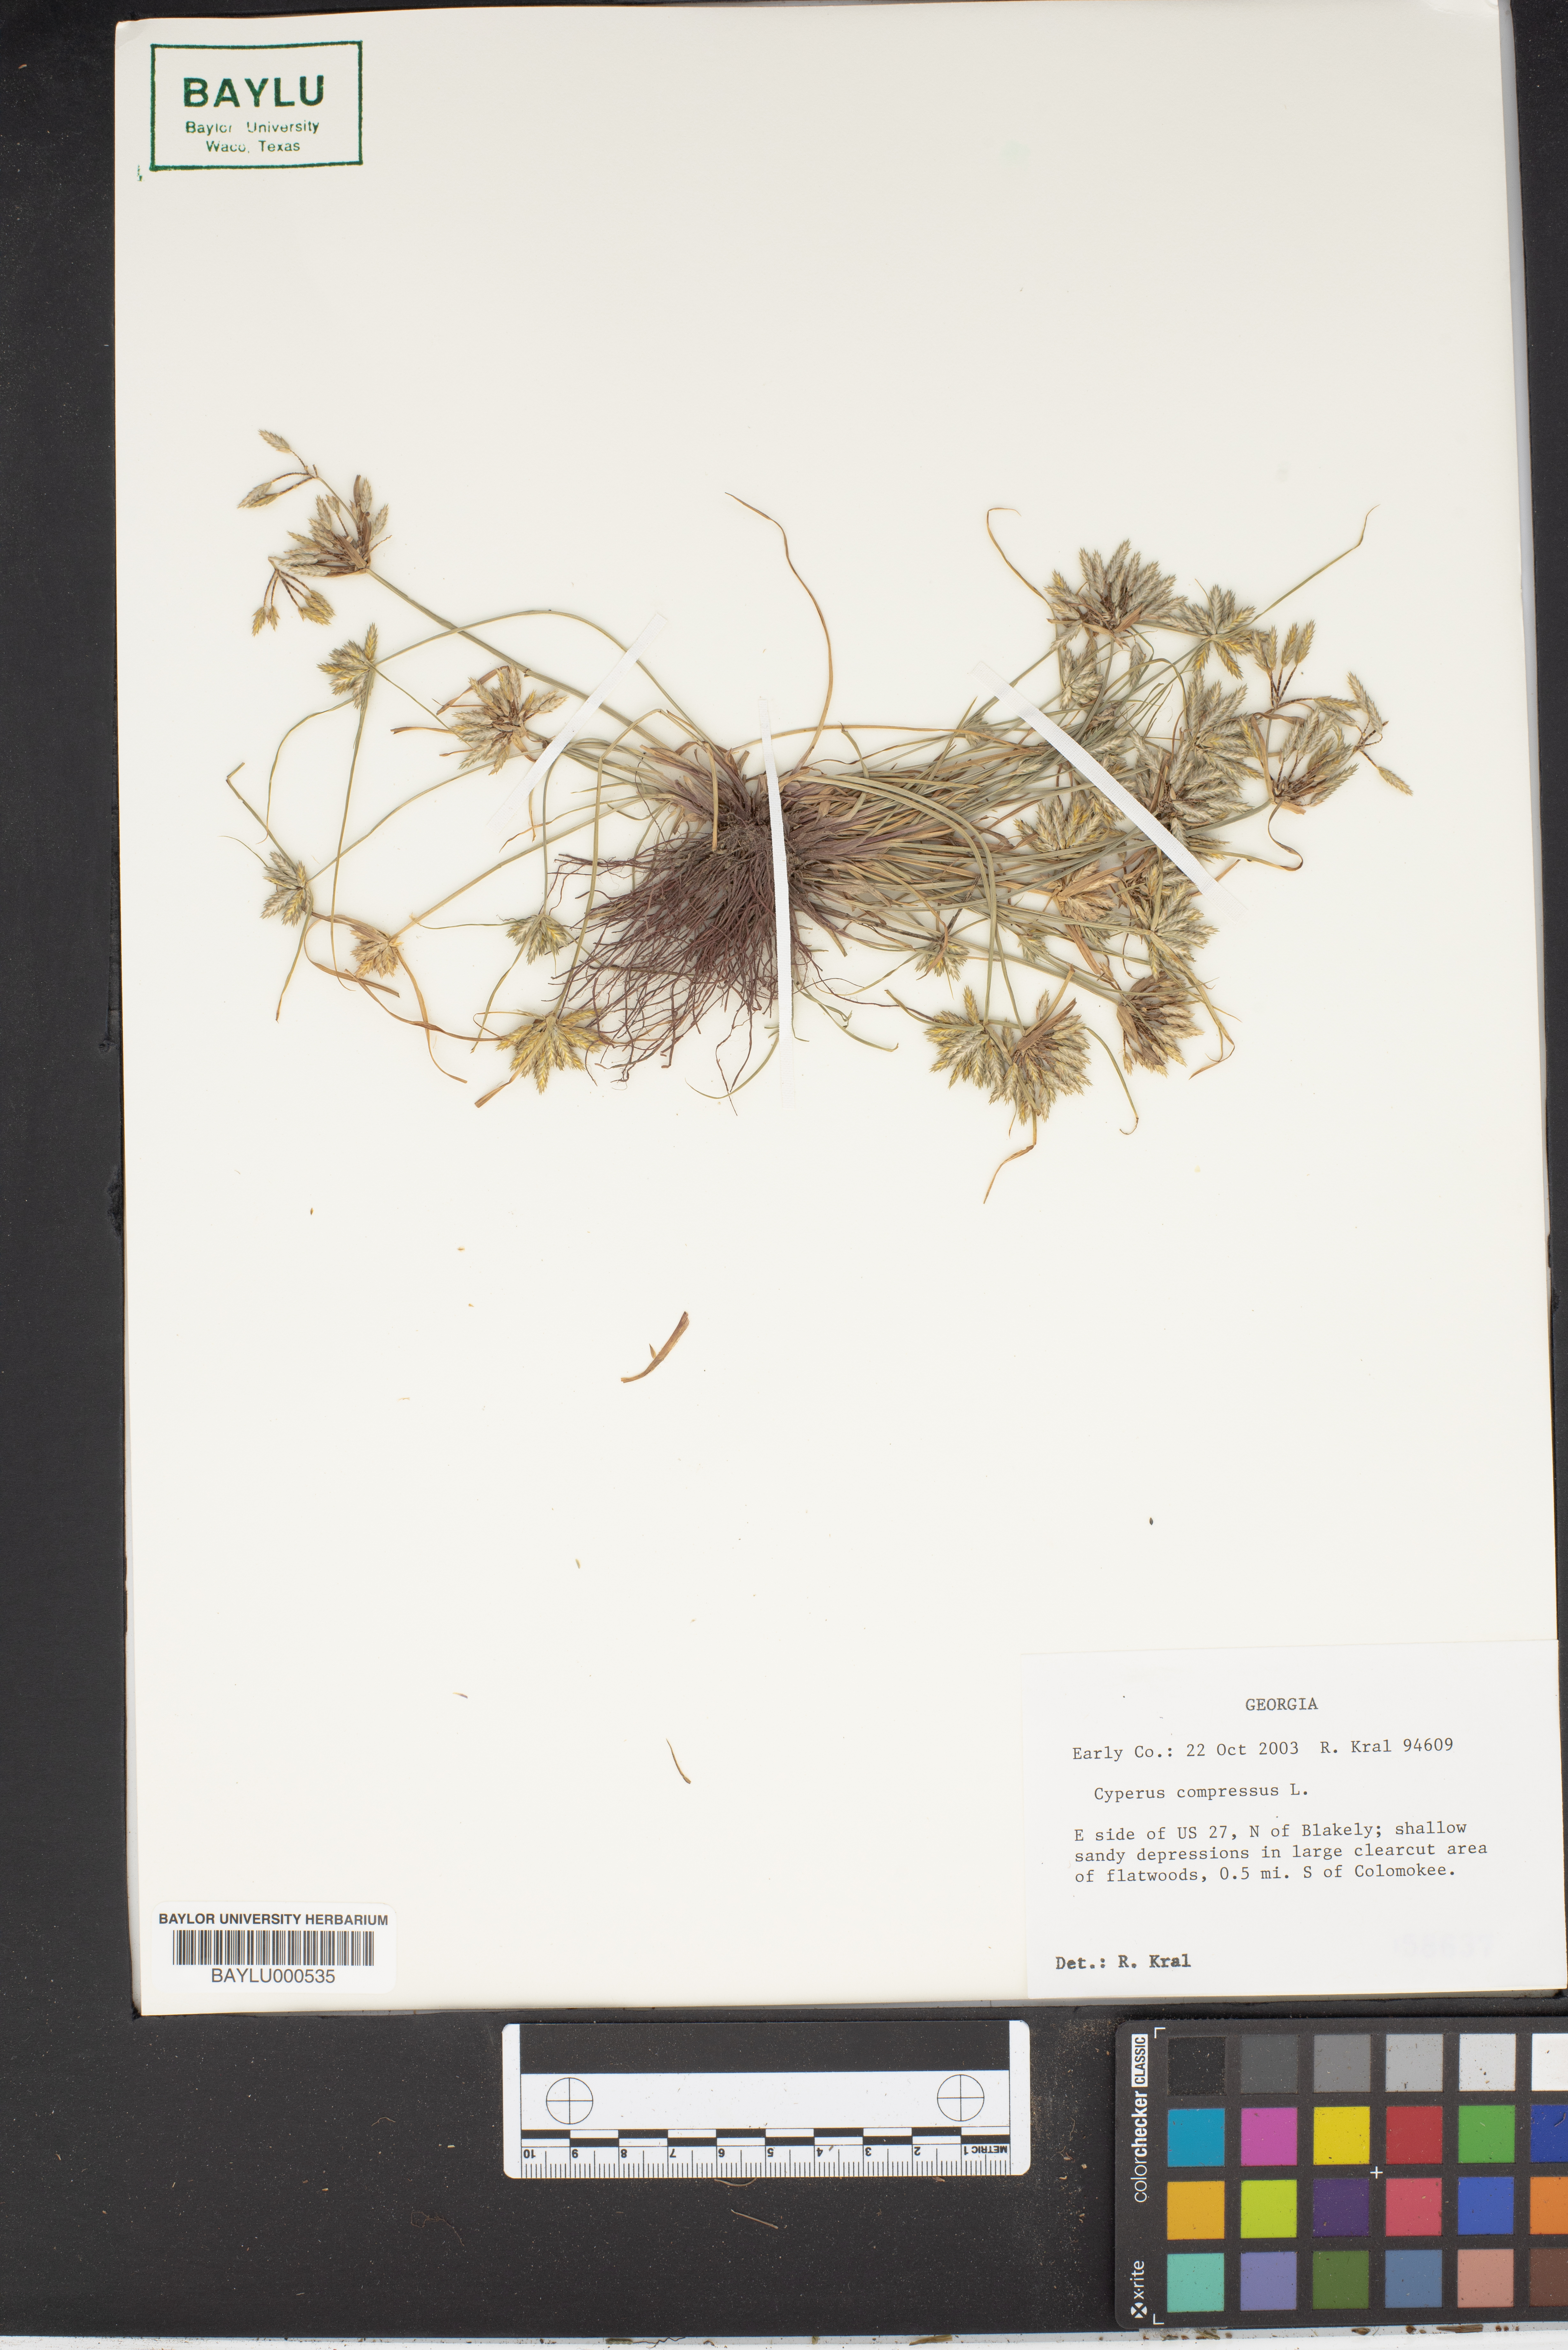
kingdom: Plantae
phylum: Tracheophyta
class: Liliopsida
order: Poales
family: Cyperaceae
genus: Cyperus
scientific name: Cyperus compressus
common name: Poorland flatsedge
